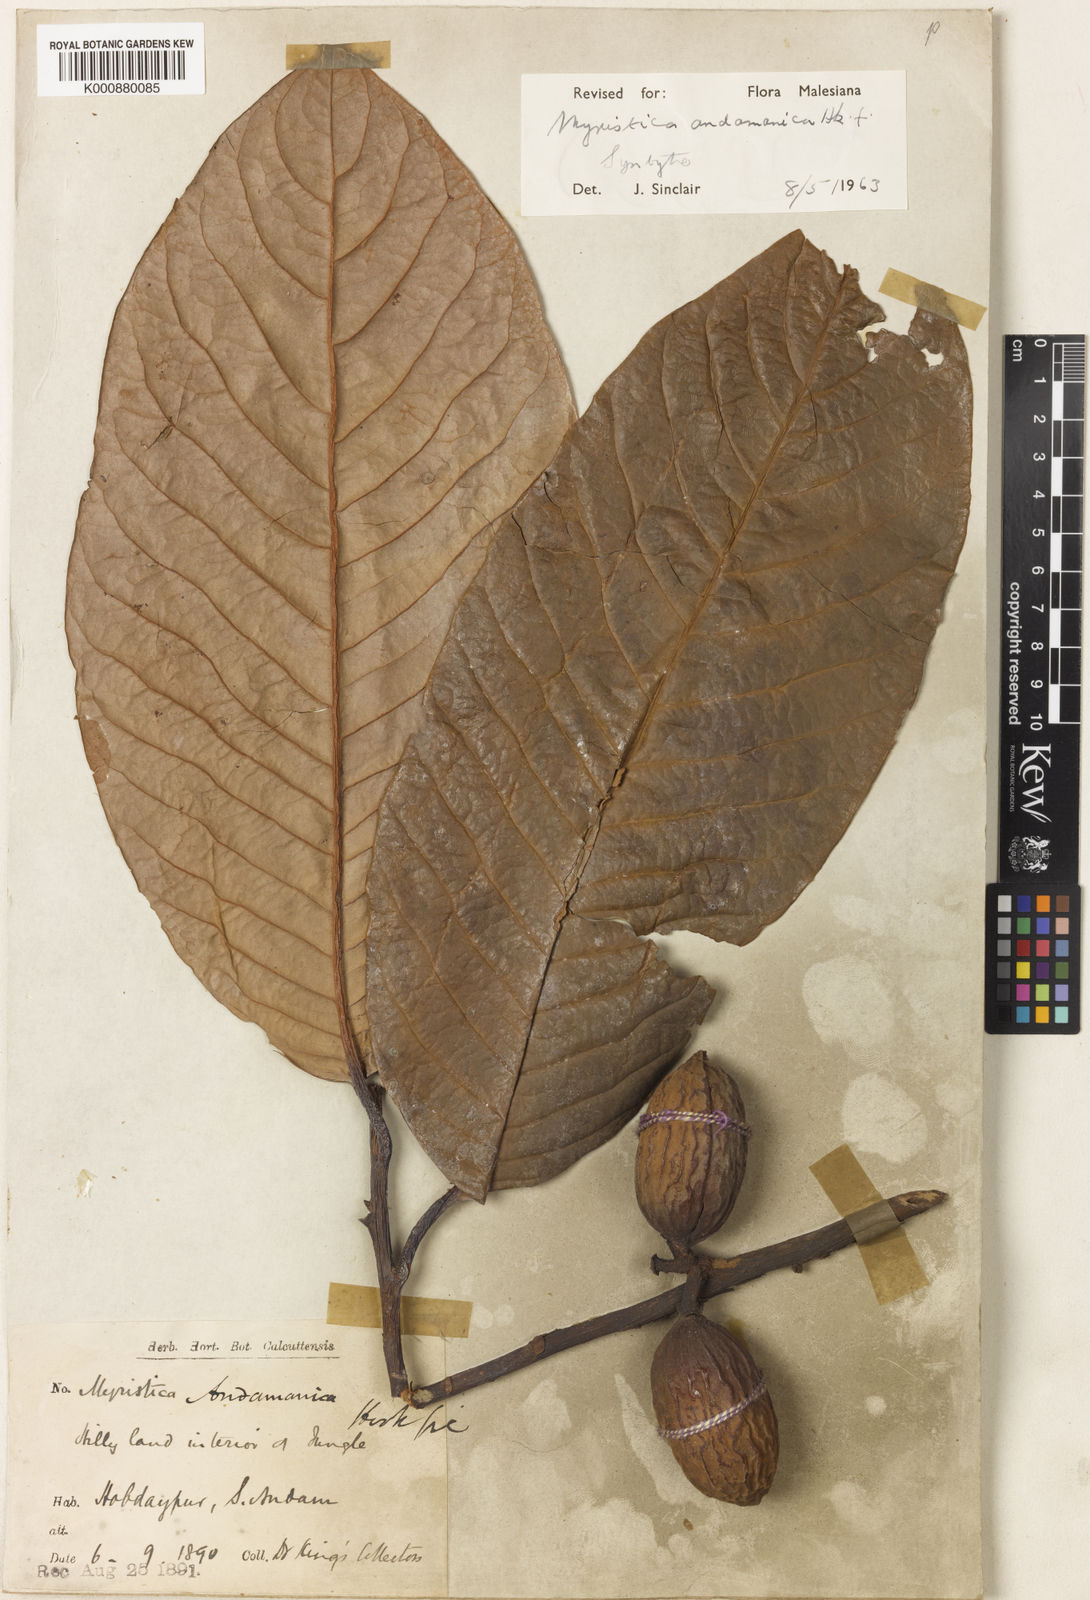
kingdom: Plantae
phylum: Tracheophyta
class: Magnoliopsida
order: Magnoliales
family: Myristicaceae
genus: Myristica
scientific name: Myristica andamanica
